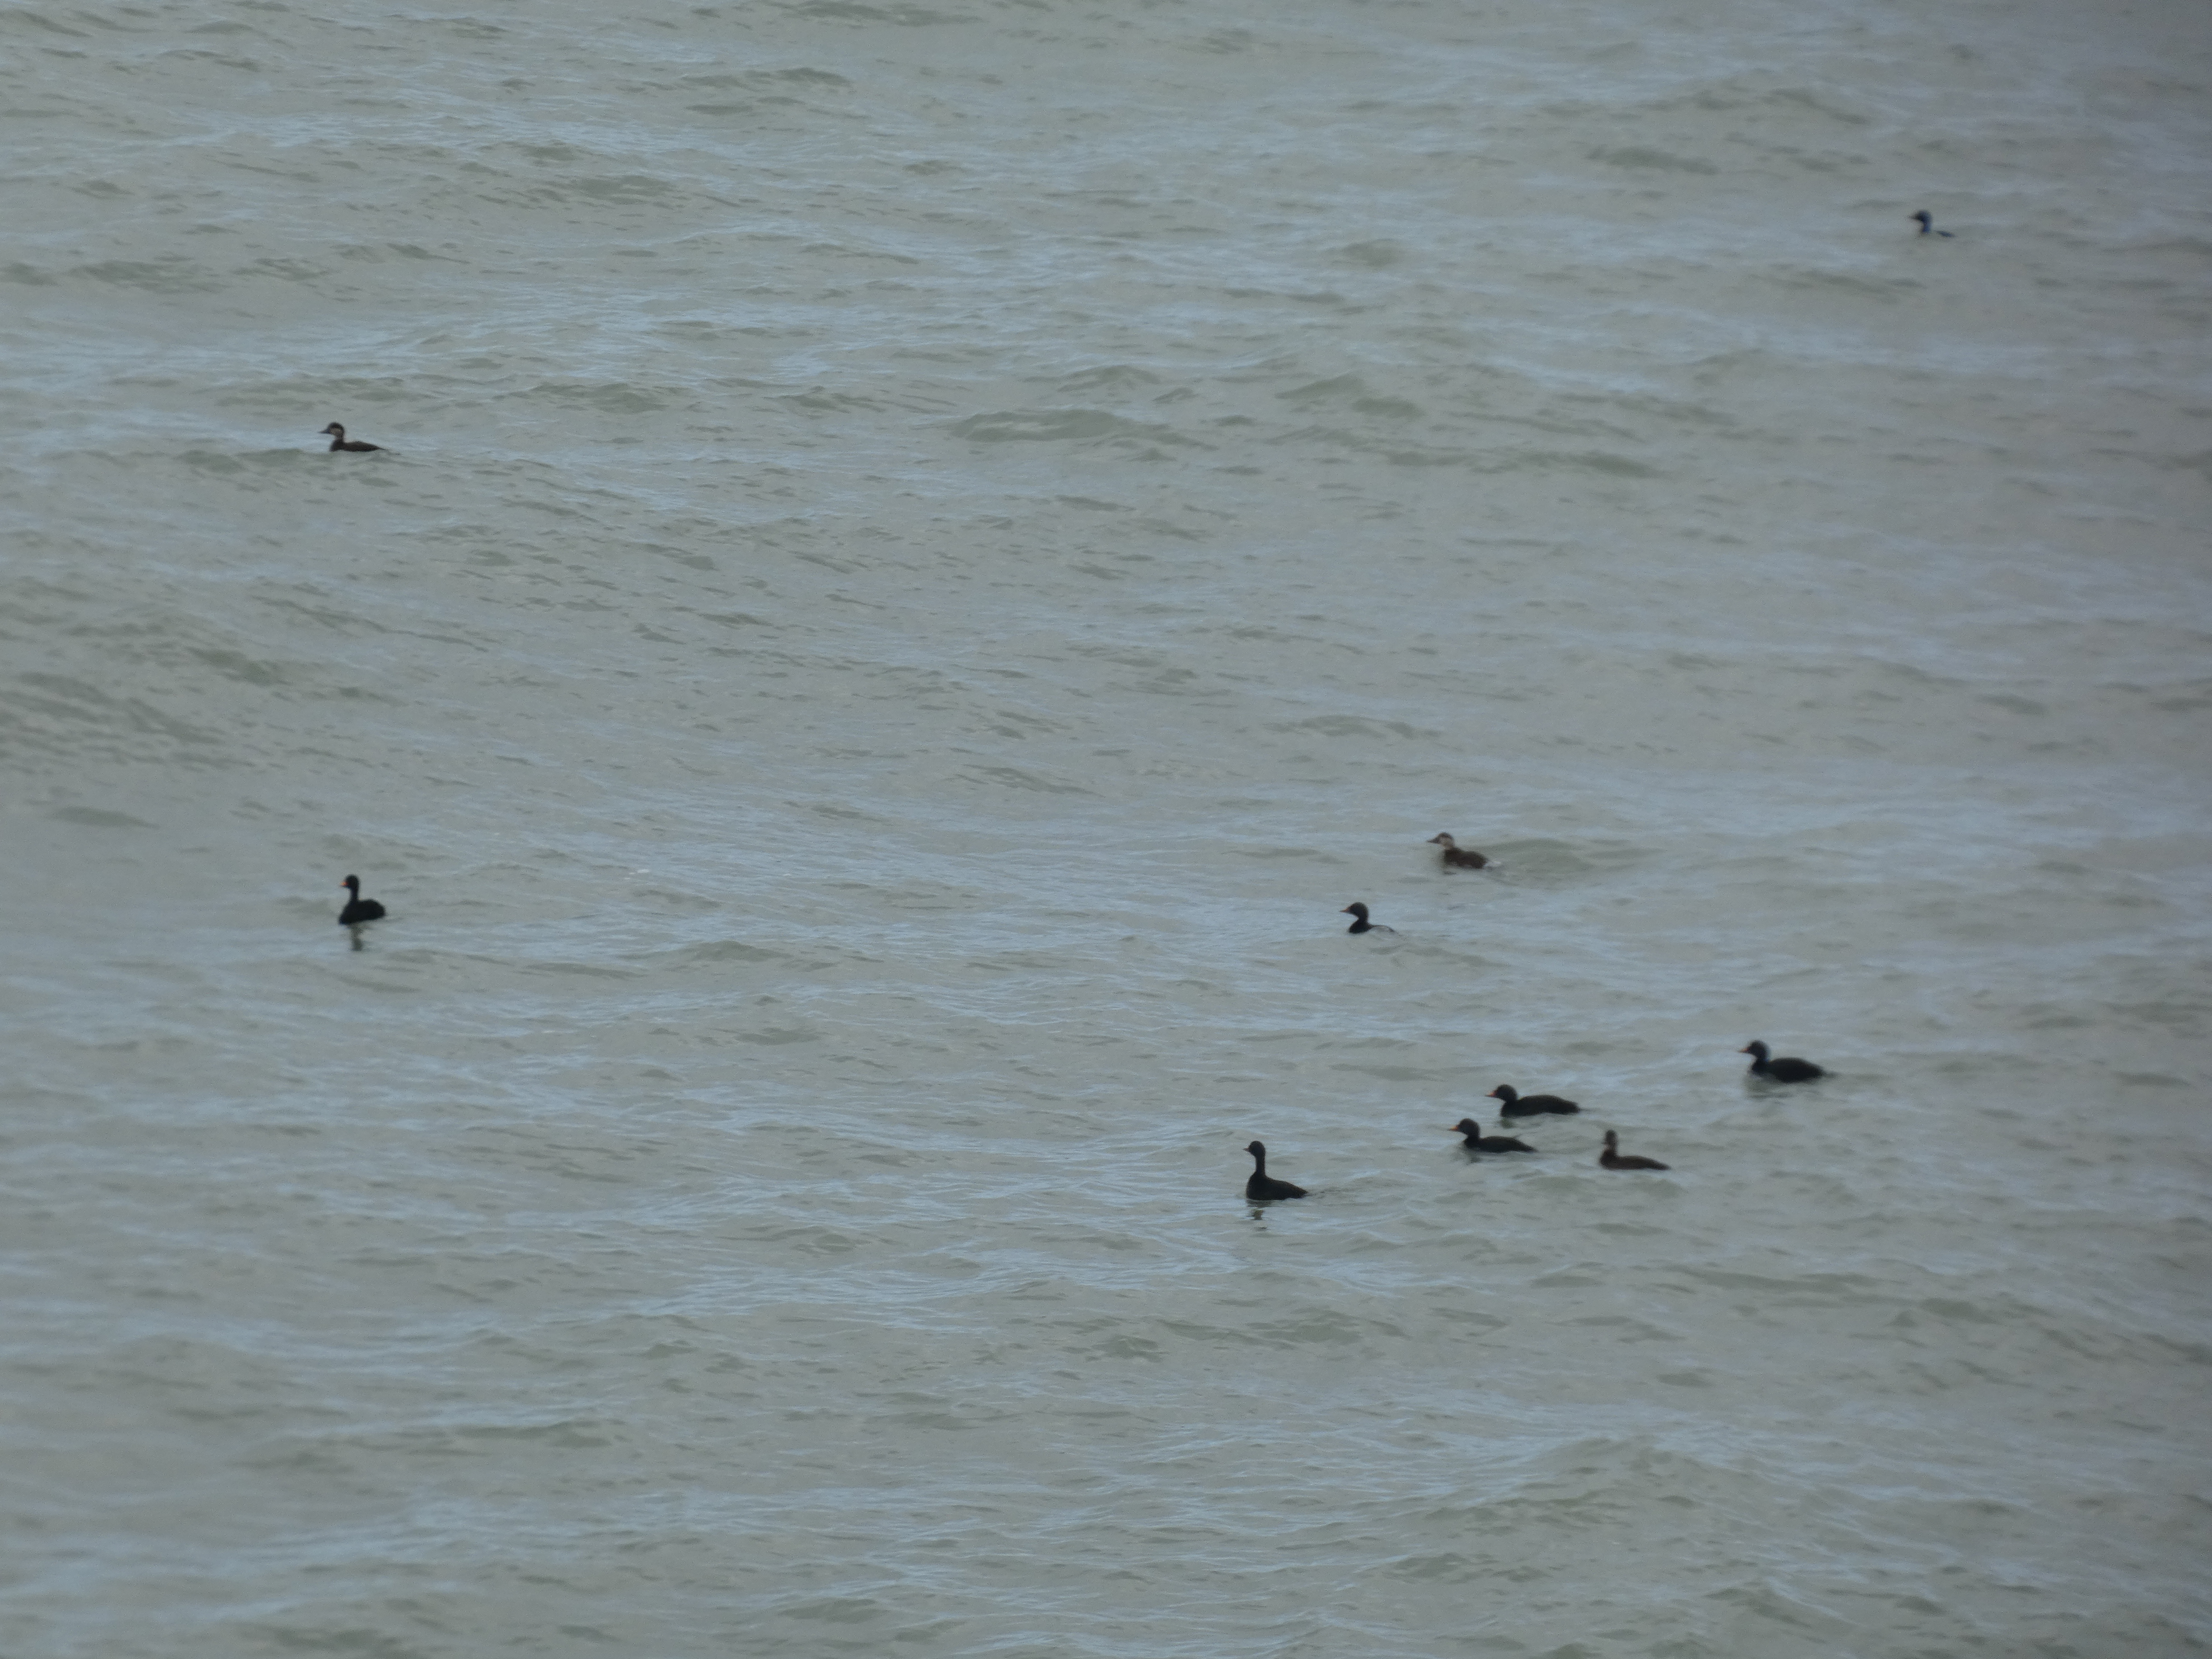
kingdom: Animalia
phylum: Chordata
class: Aves
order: Anseriformes
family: Anatidae
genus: Melanitta
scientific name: Melanitta nigra
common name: Sortand
